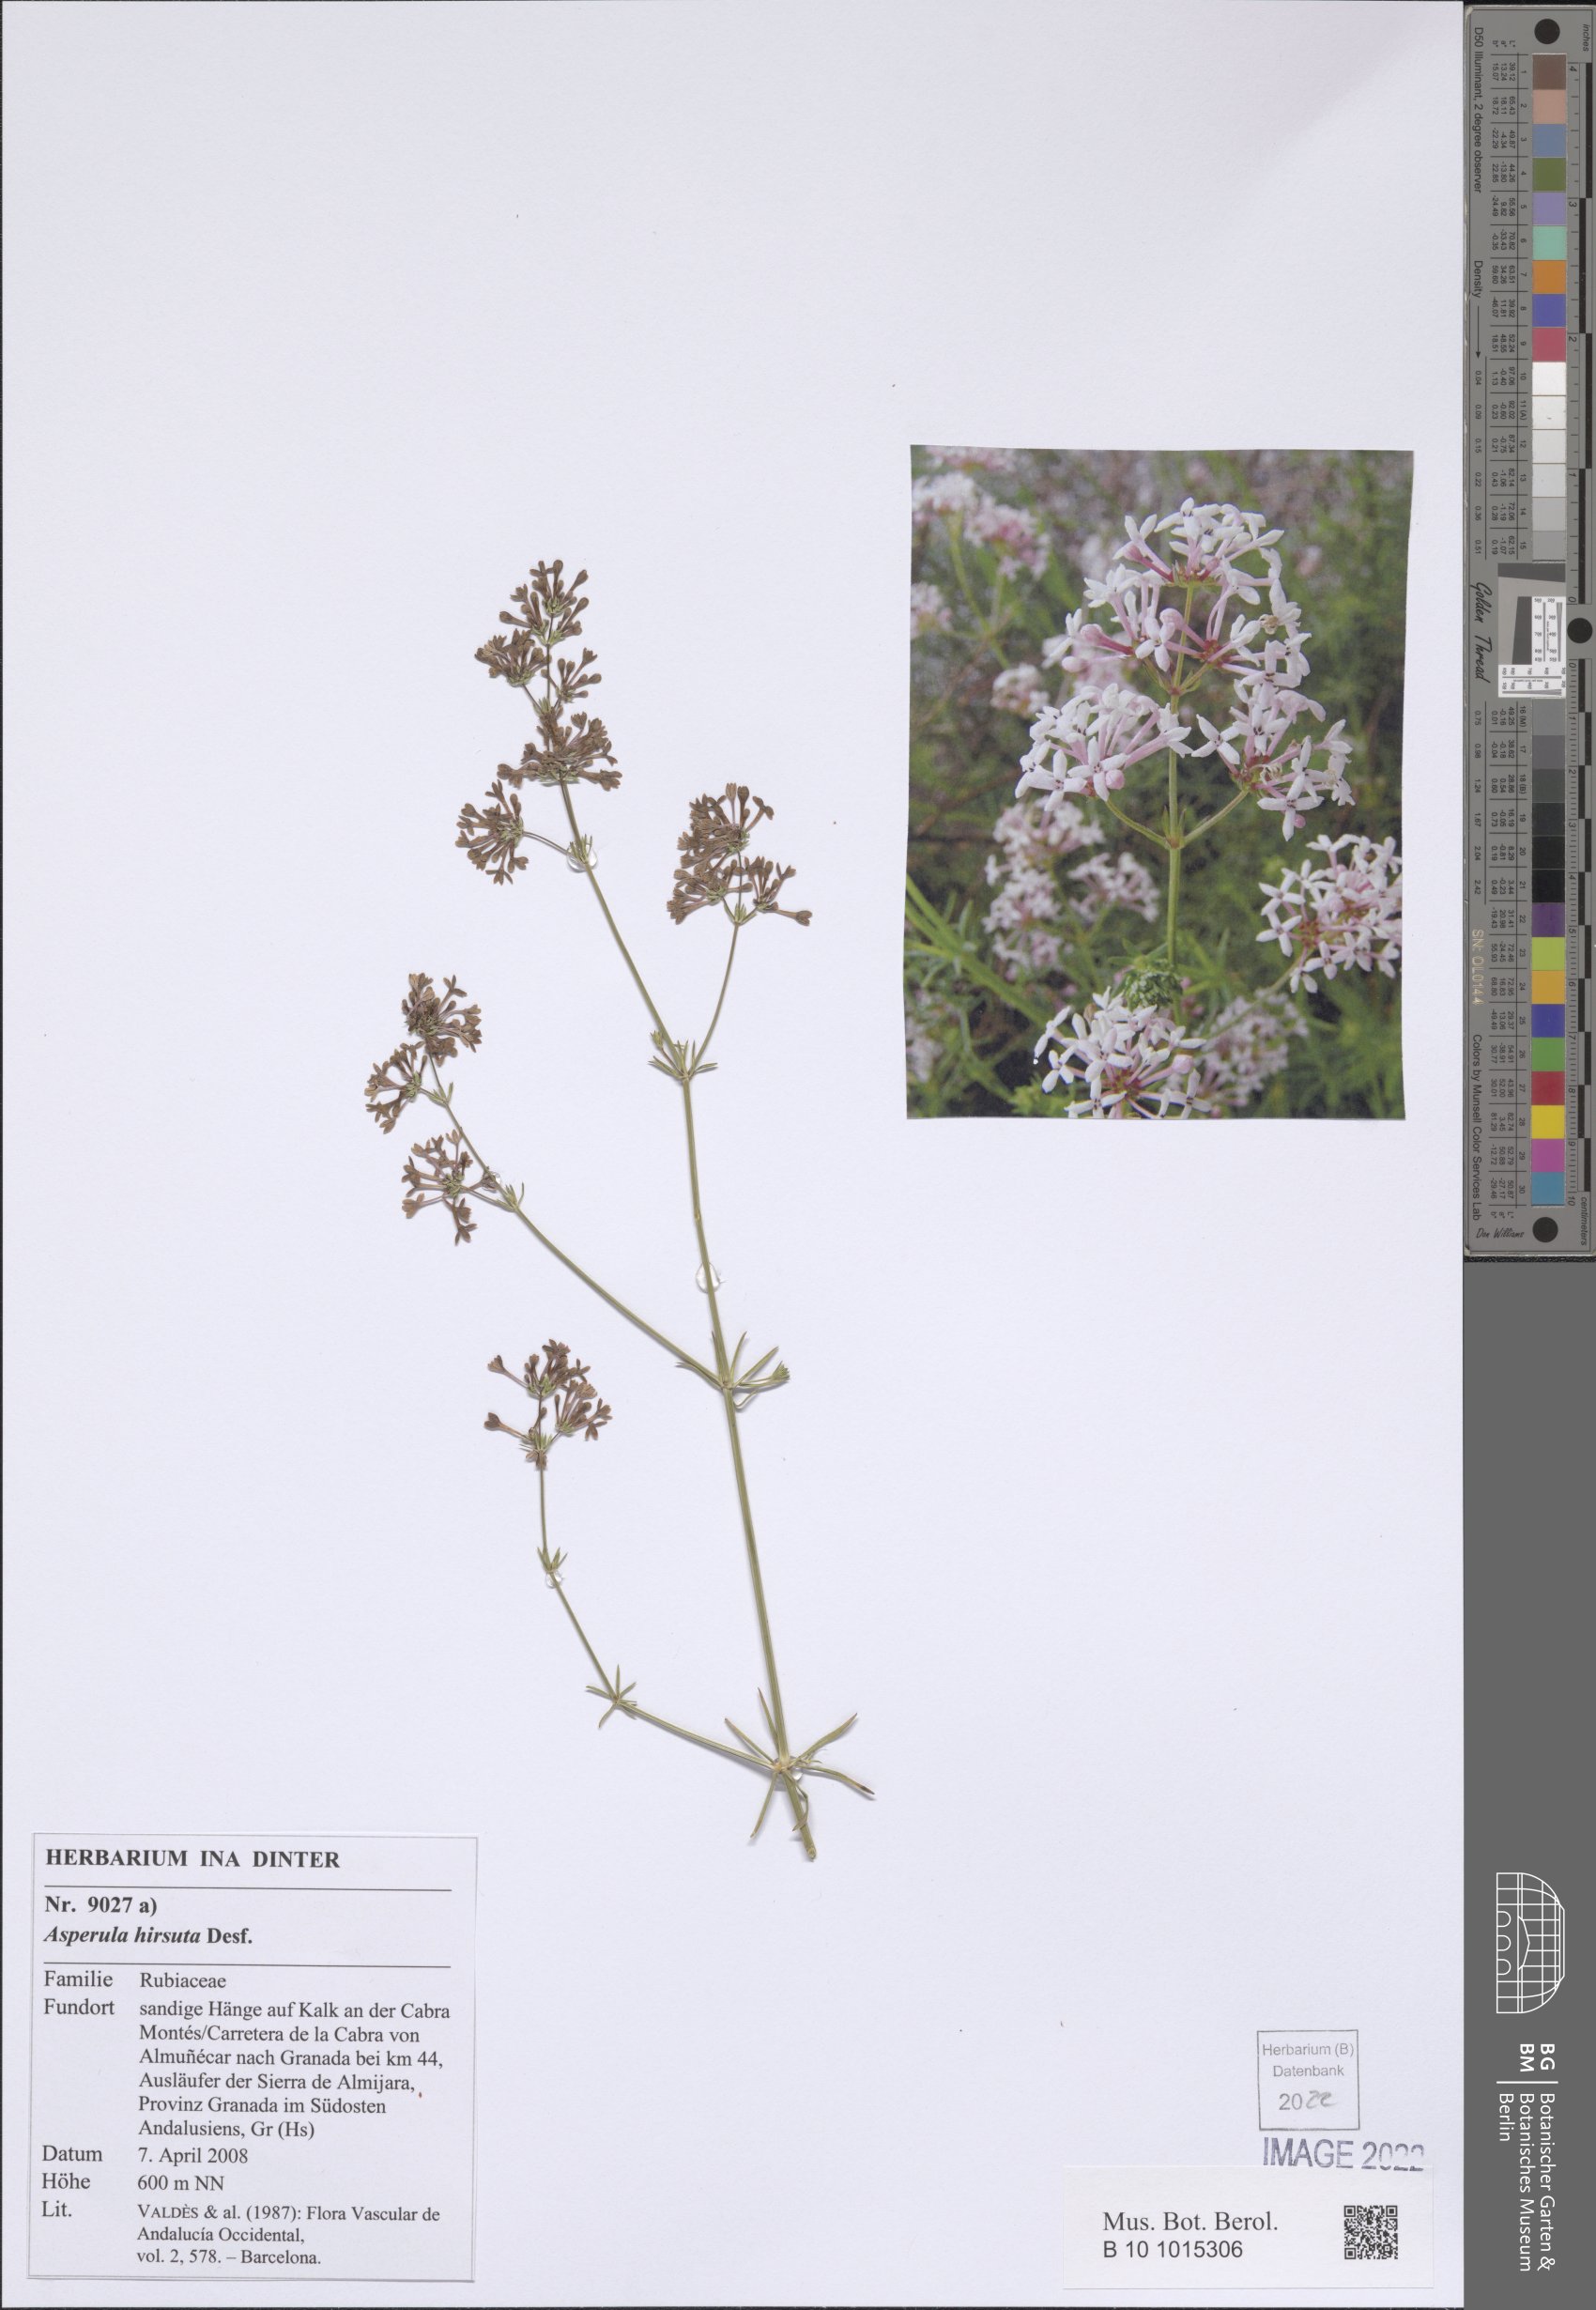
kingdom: Plantae
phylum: Tracheophyta
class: Magnoliopsida
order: Gentianales
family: Rubiaceae
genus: Hexaphylla
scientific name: Hexaphylla hirsuta
